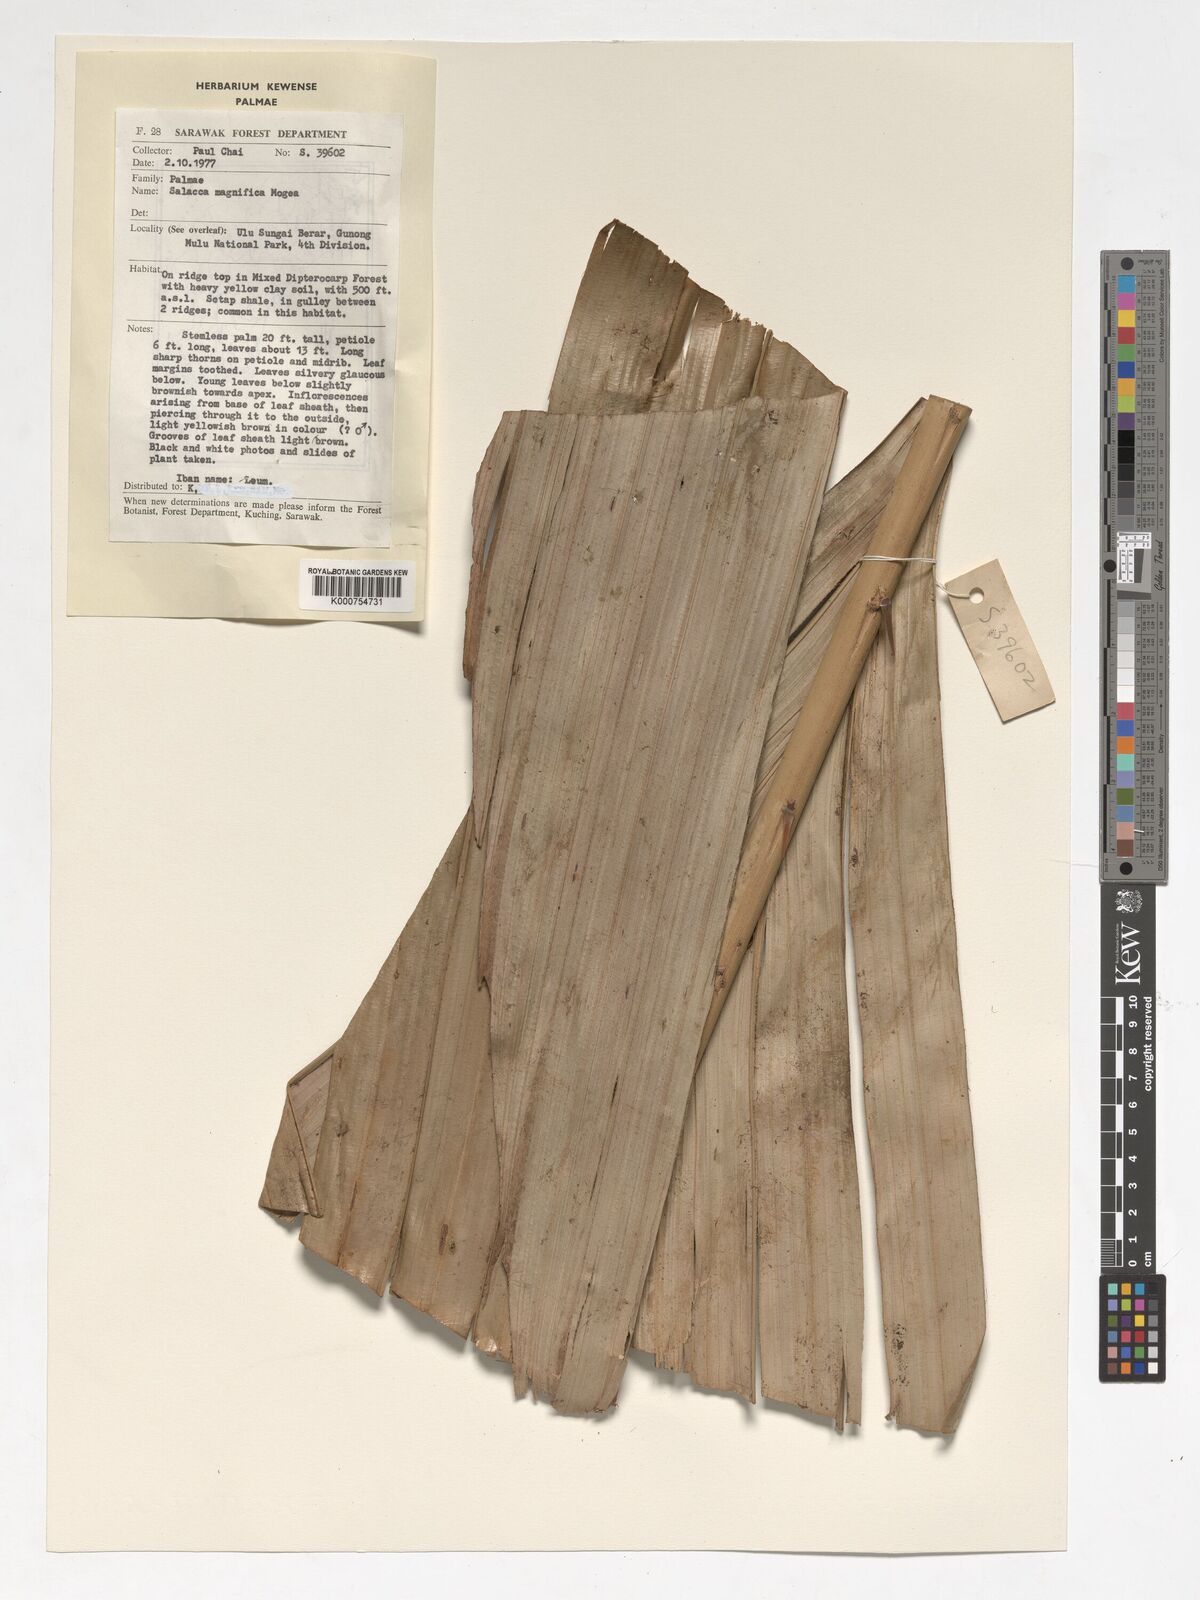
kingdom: Plantae
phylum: Tracheophyta
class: Liliopsida
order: Arecales
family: Arecaceae
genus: Salacca
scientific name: Salacca magnifica
